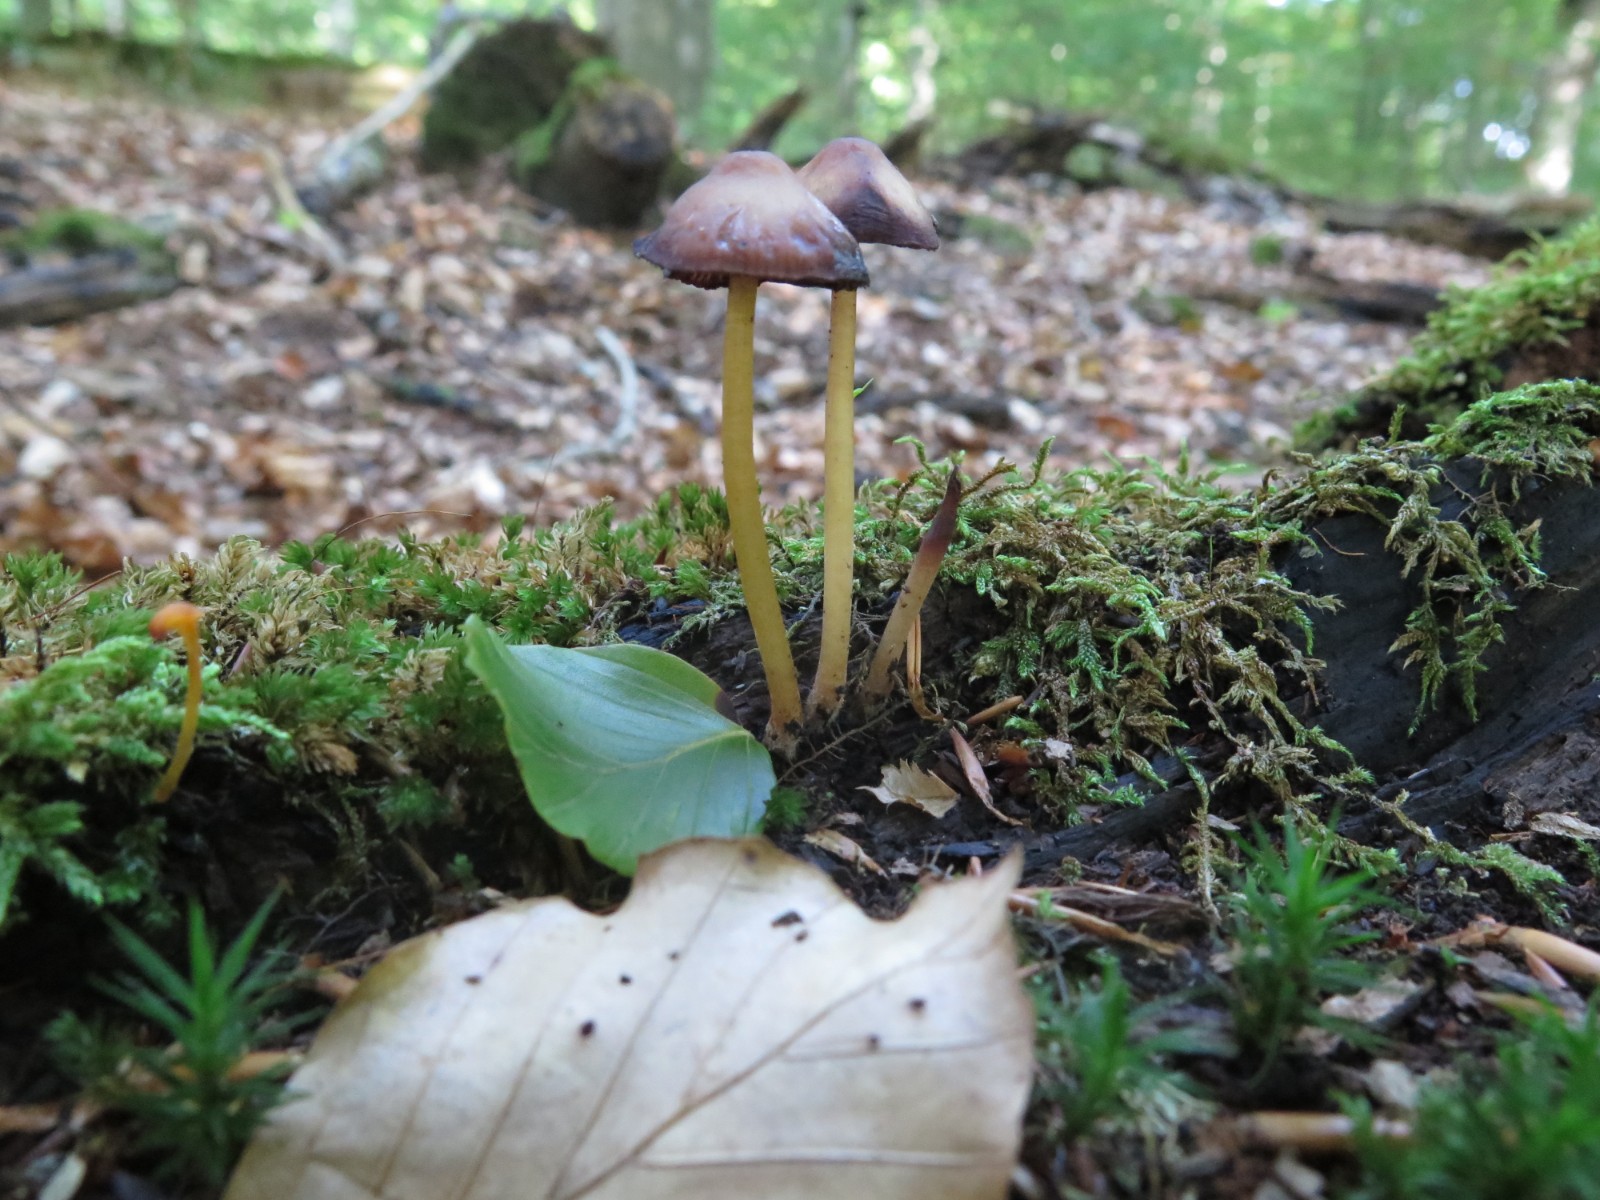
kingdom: Fungi
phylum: Basidiomycota
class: Agaricomycetes
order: Agaricales
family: Mycenaceae
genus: Mycena
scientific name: Mycena renati
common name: smuk huesvamp
